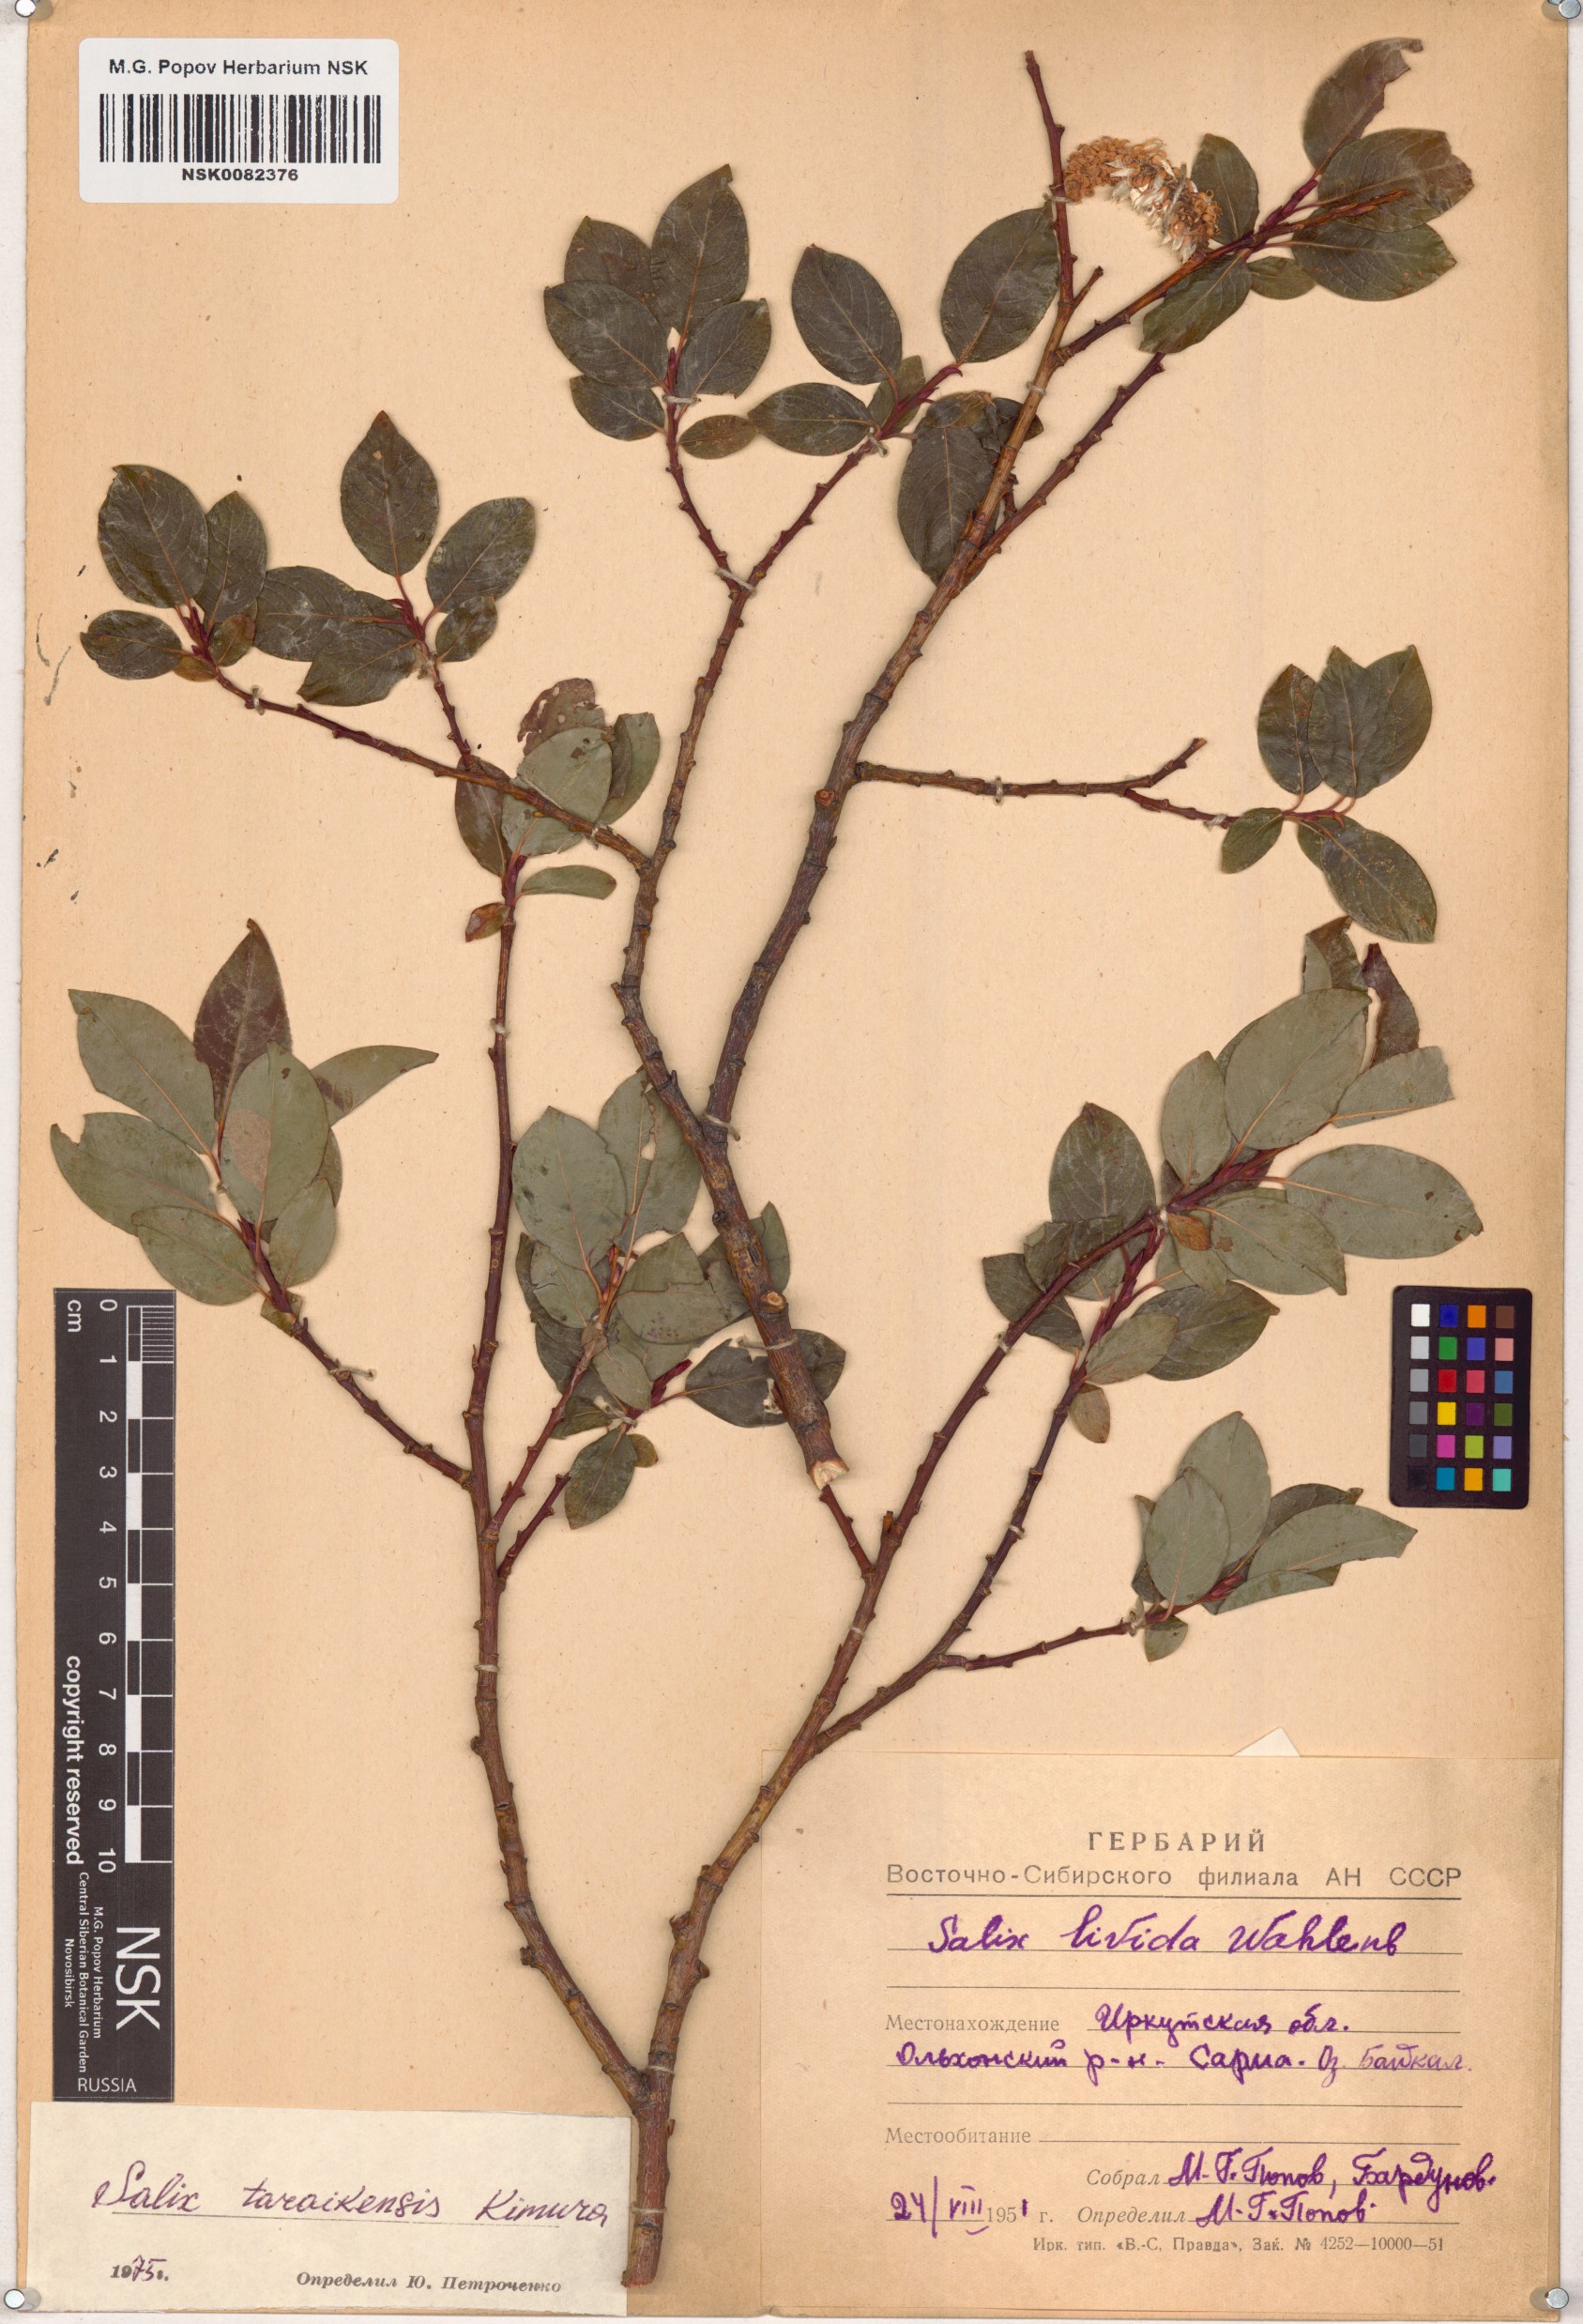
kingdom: Plantae
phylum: Tracheophyta
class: Magnoliopsida
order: Malpighiales
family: Salicaceae
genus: Salix
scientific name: Salix taraikensis
